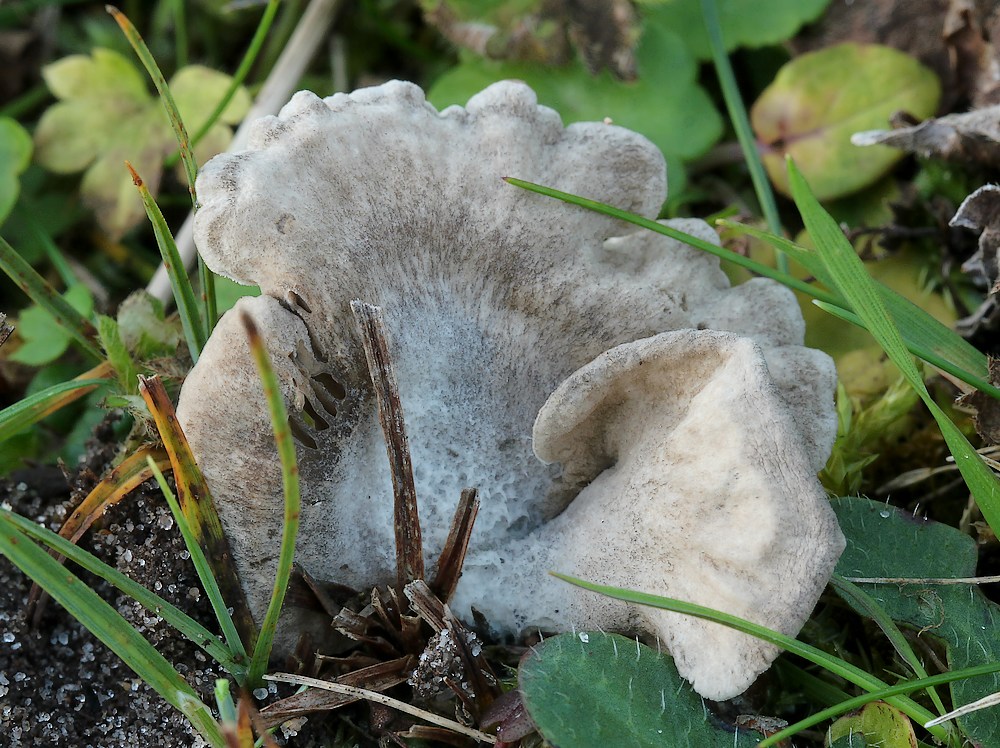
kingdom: Fungi
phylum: Basidiomycota
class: Agaricomycetes
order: Agaricales
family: Hygrophoraceae
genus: Arrhenia
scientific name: Arrhenia acerosa
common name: muslinge-fontænehat
